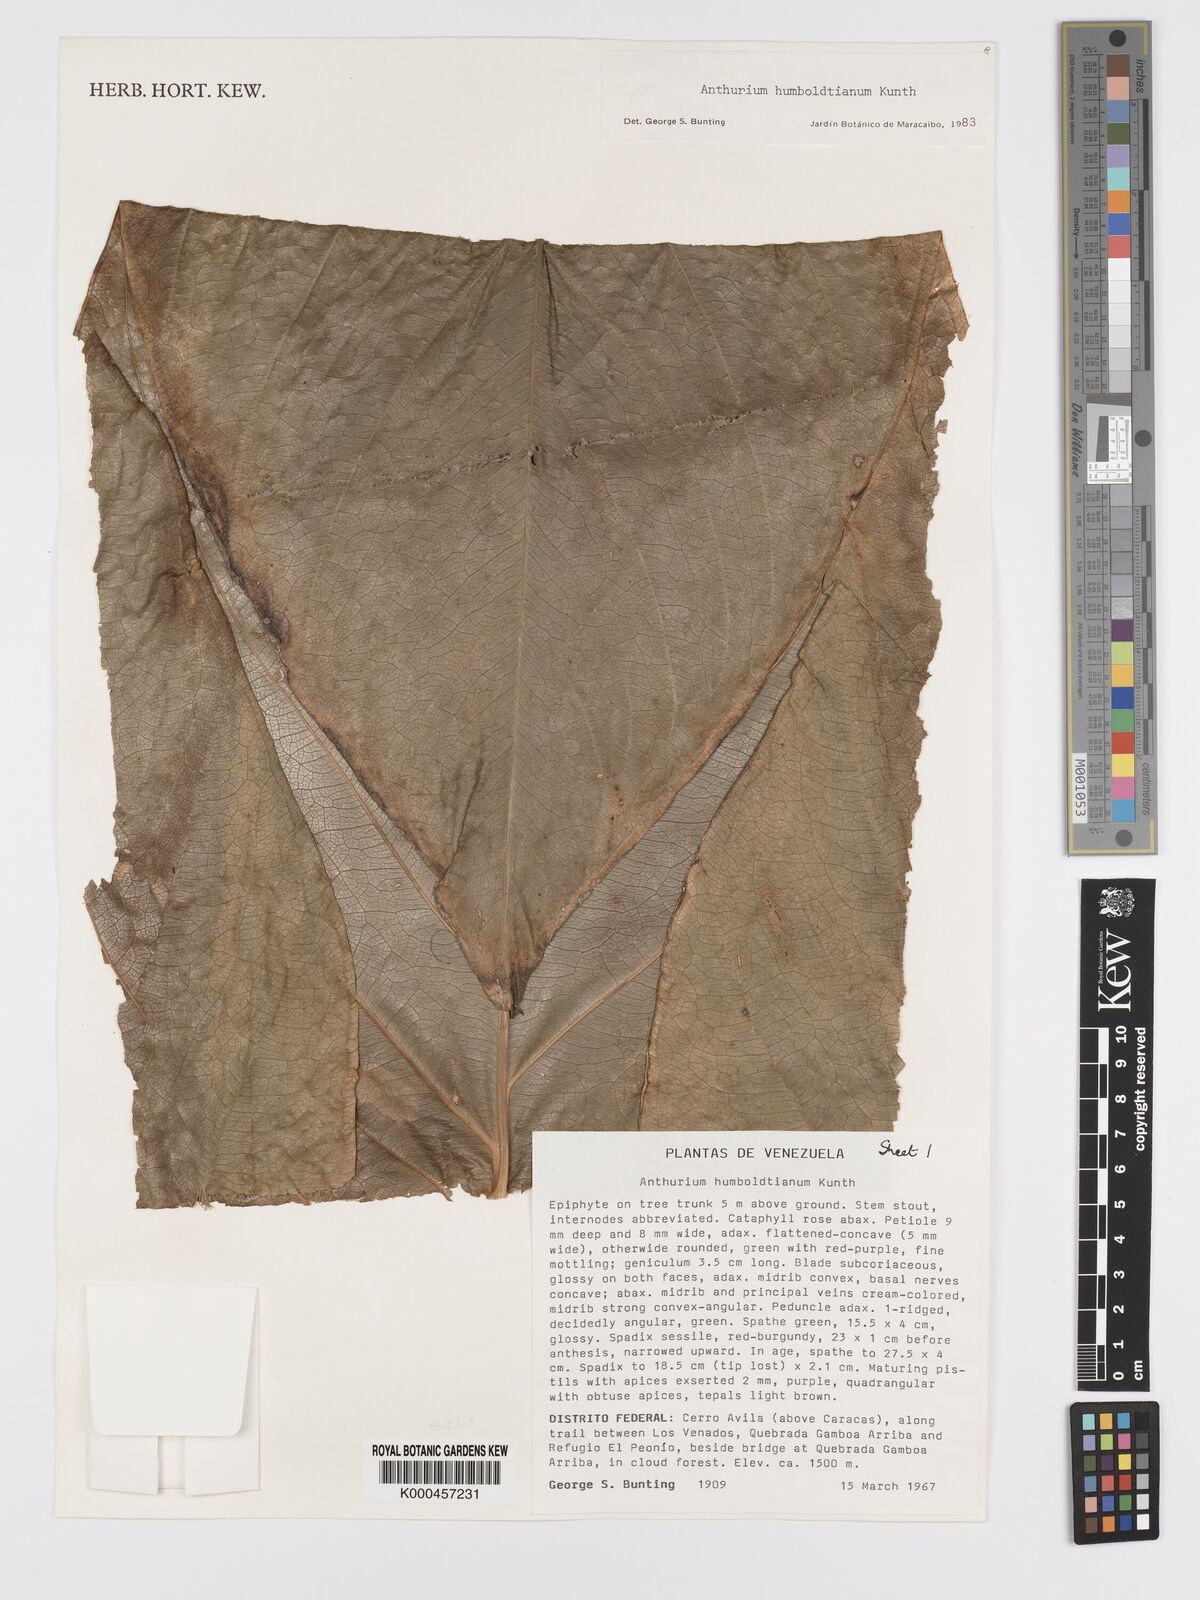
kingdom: Plantae
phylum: Tracheophyta
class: Liliopsida
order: Alismatales
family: Araceae
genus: Anthurium
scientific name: Anthurium
